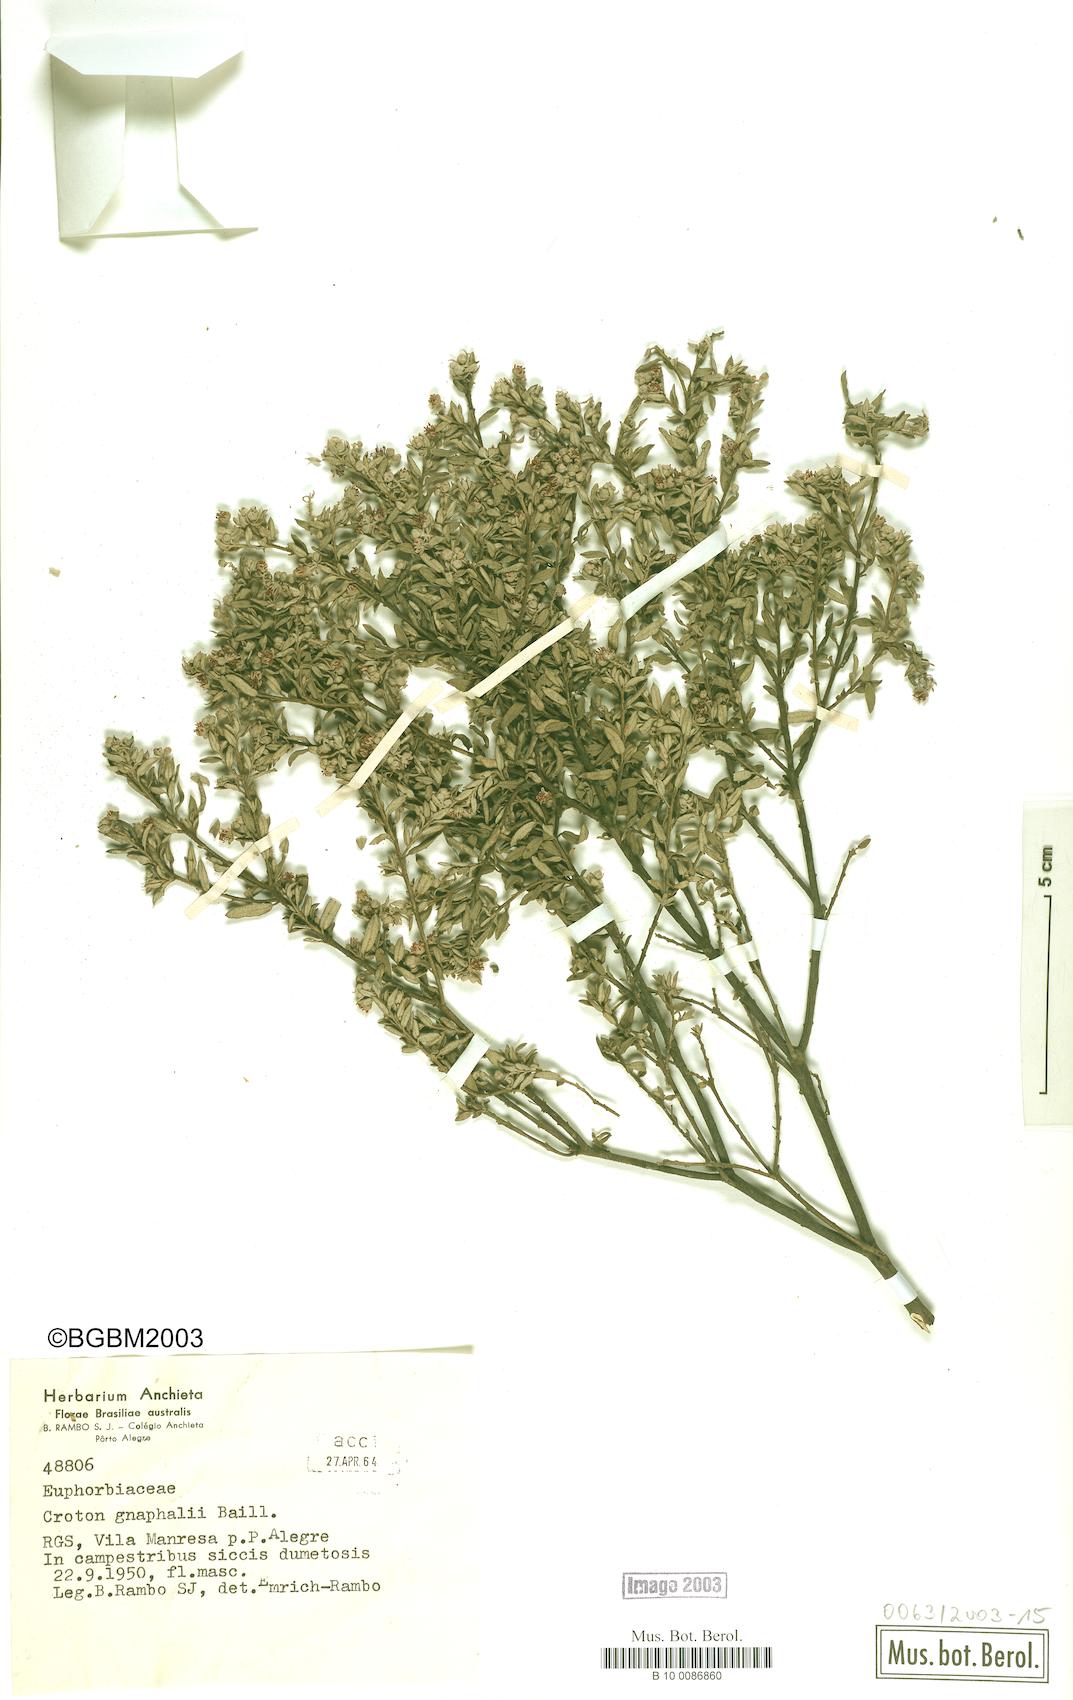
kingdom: Plantae
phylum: Tracheophyta
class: Magnoliopsida
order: Malpighiales
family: Euphorbiaceae
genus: Croton
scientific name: Croton gnaphalii
